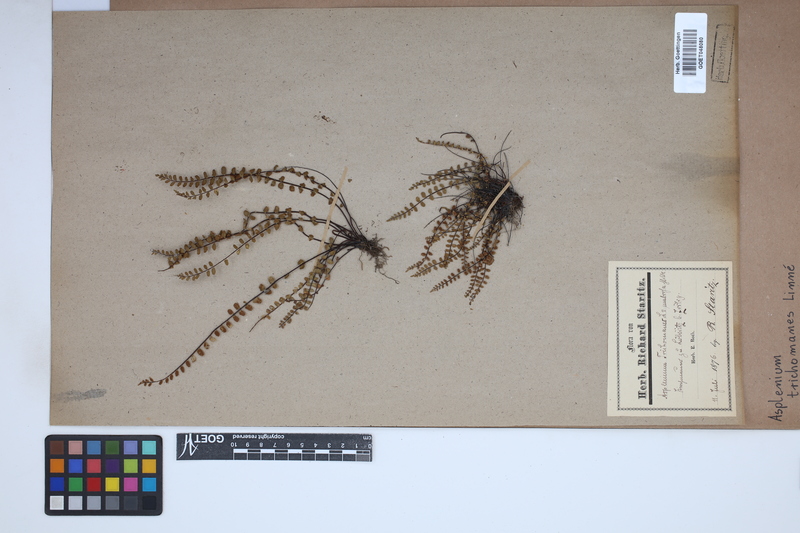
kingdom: Plantae
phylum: Tracheophyta
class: Polypodiopsida
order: Polypodiales
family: Aspleniaceae
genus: Asplenium
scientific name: Asplenium trichomanes
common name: Maidenhair spleenwort
